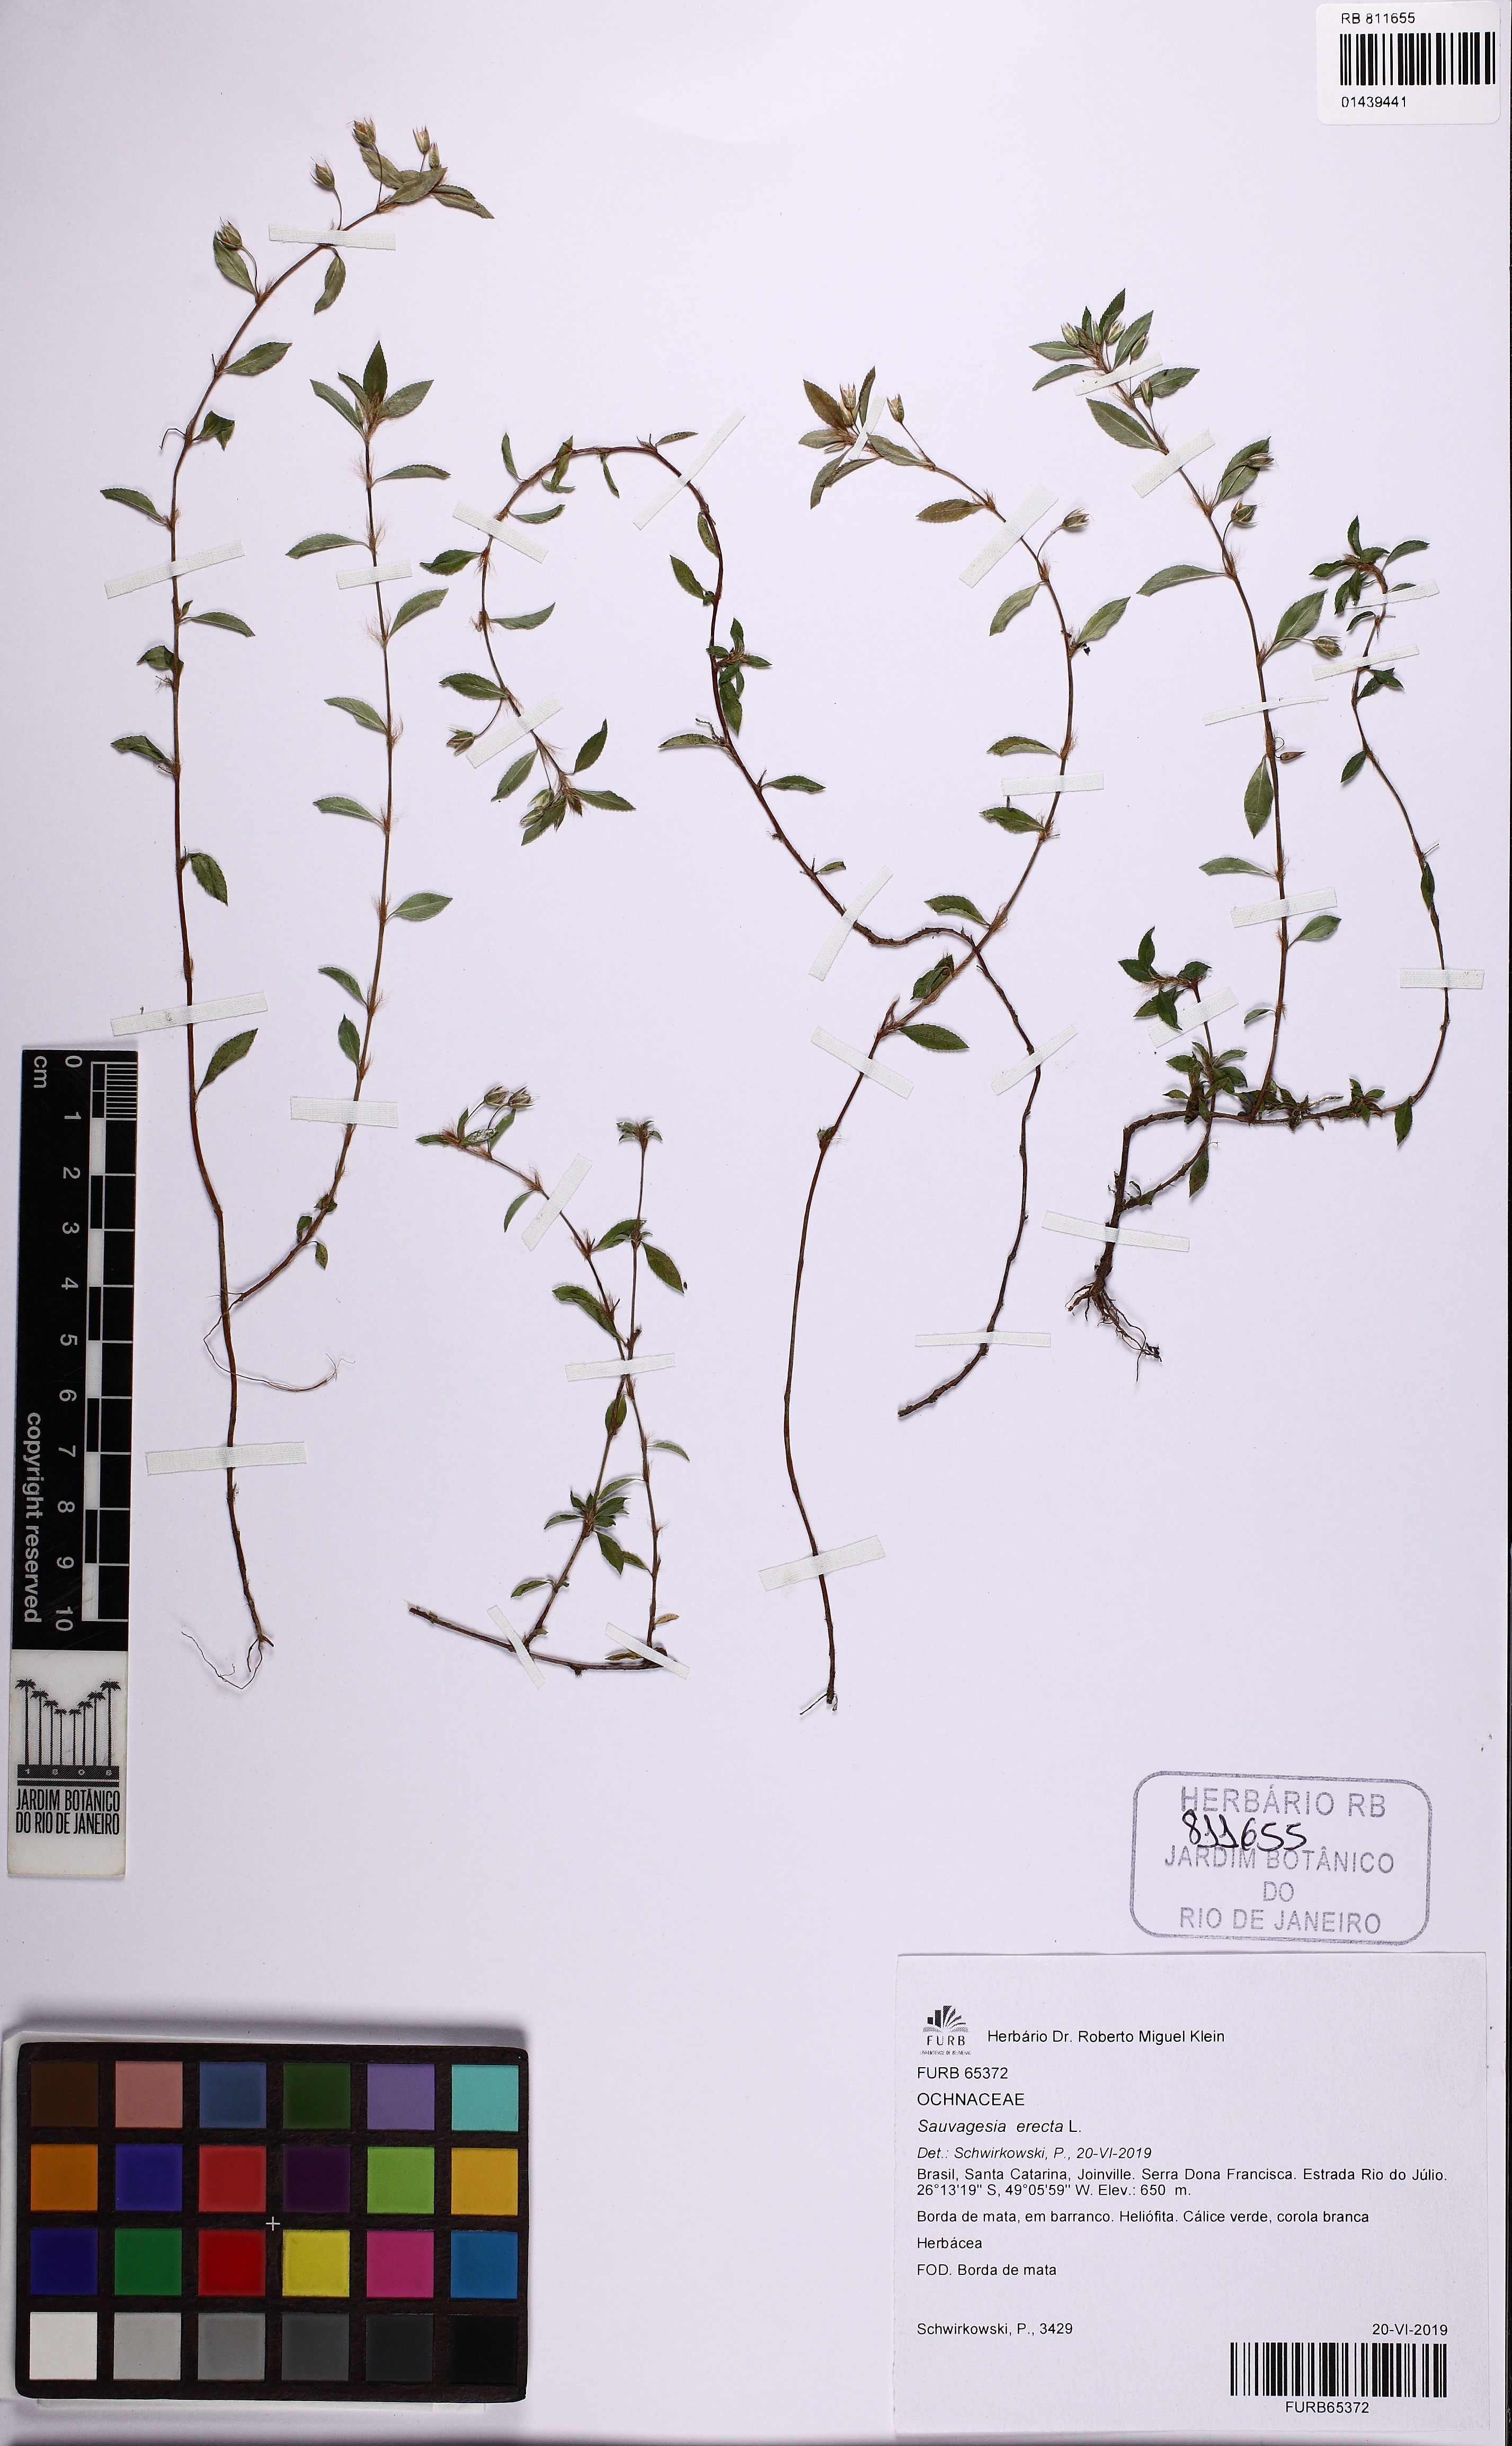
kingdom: Plantae
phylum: Tracheophyta
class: Magnoliopsida
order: Malpighiales
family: Ochnaceae
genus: Sauvagesia
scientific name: Sauvagesia erecta
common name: Creole tea
